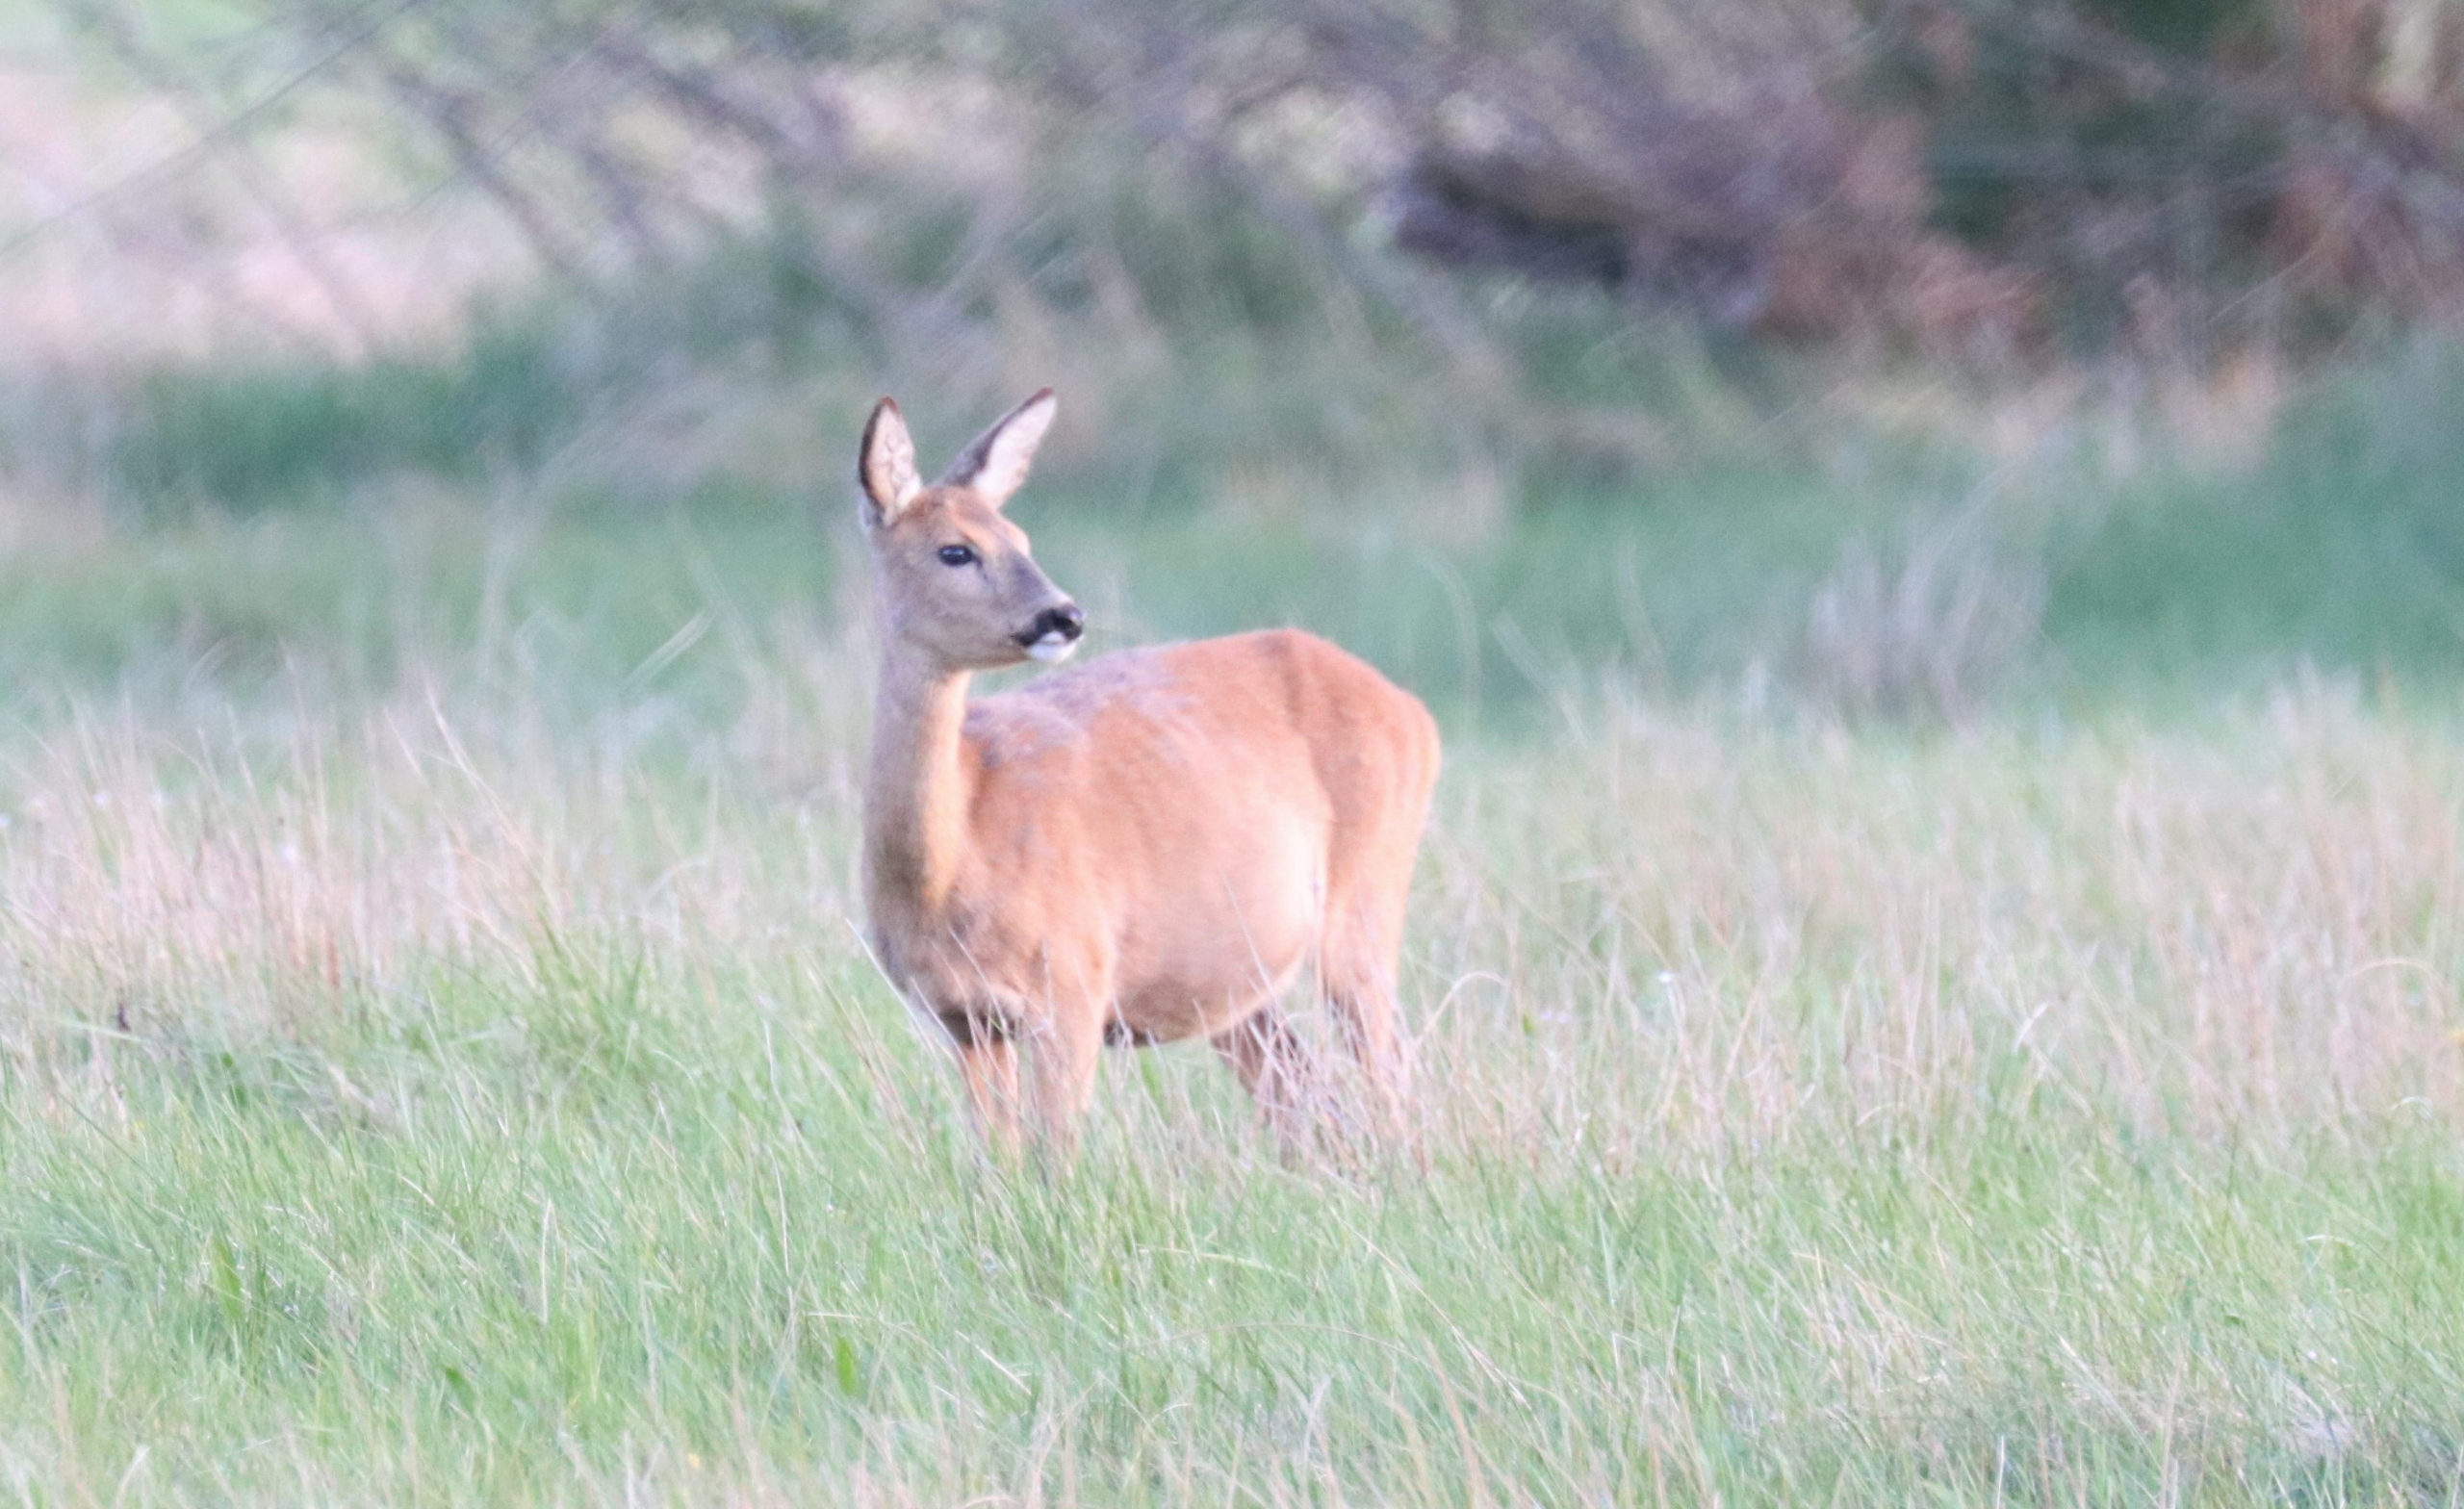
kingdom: Animalia
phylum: Chordata
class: Mammalia
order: Artiodactyla
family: Cervidae
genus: Capreolus
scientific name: Capreolus capreolus
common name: Rådyr
